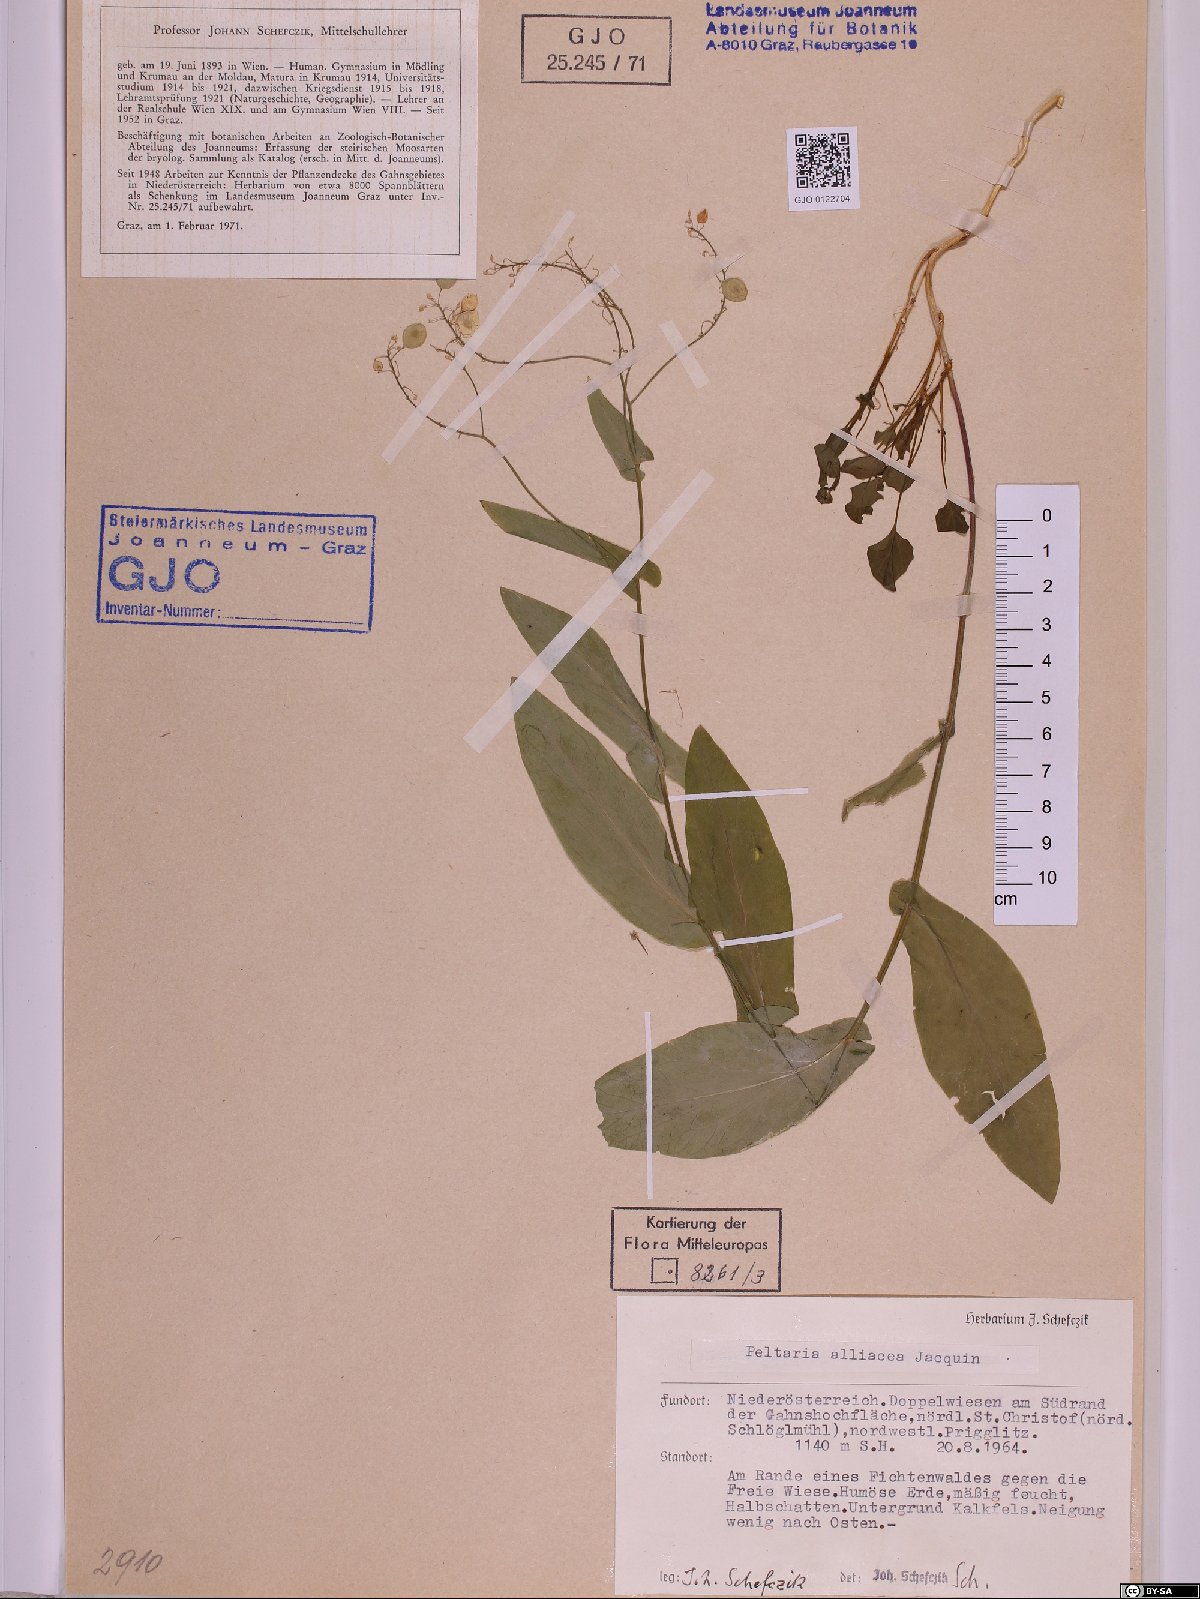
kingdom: Plantae
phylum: Tracheophyta
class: Magnoliopsida
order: Brassicales
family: Brassicaceae
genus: Peltaria
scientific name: Peltaria alliacea
